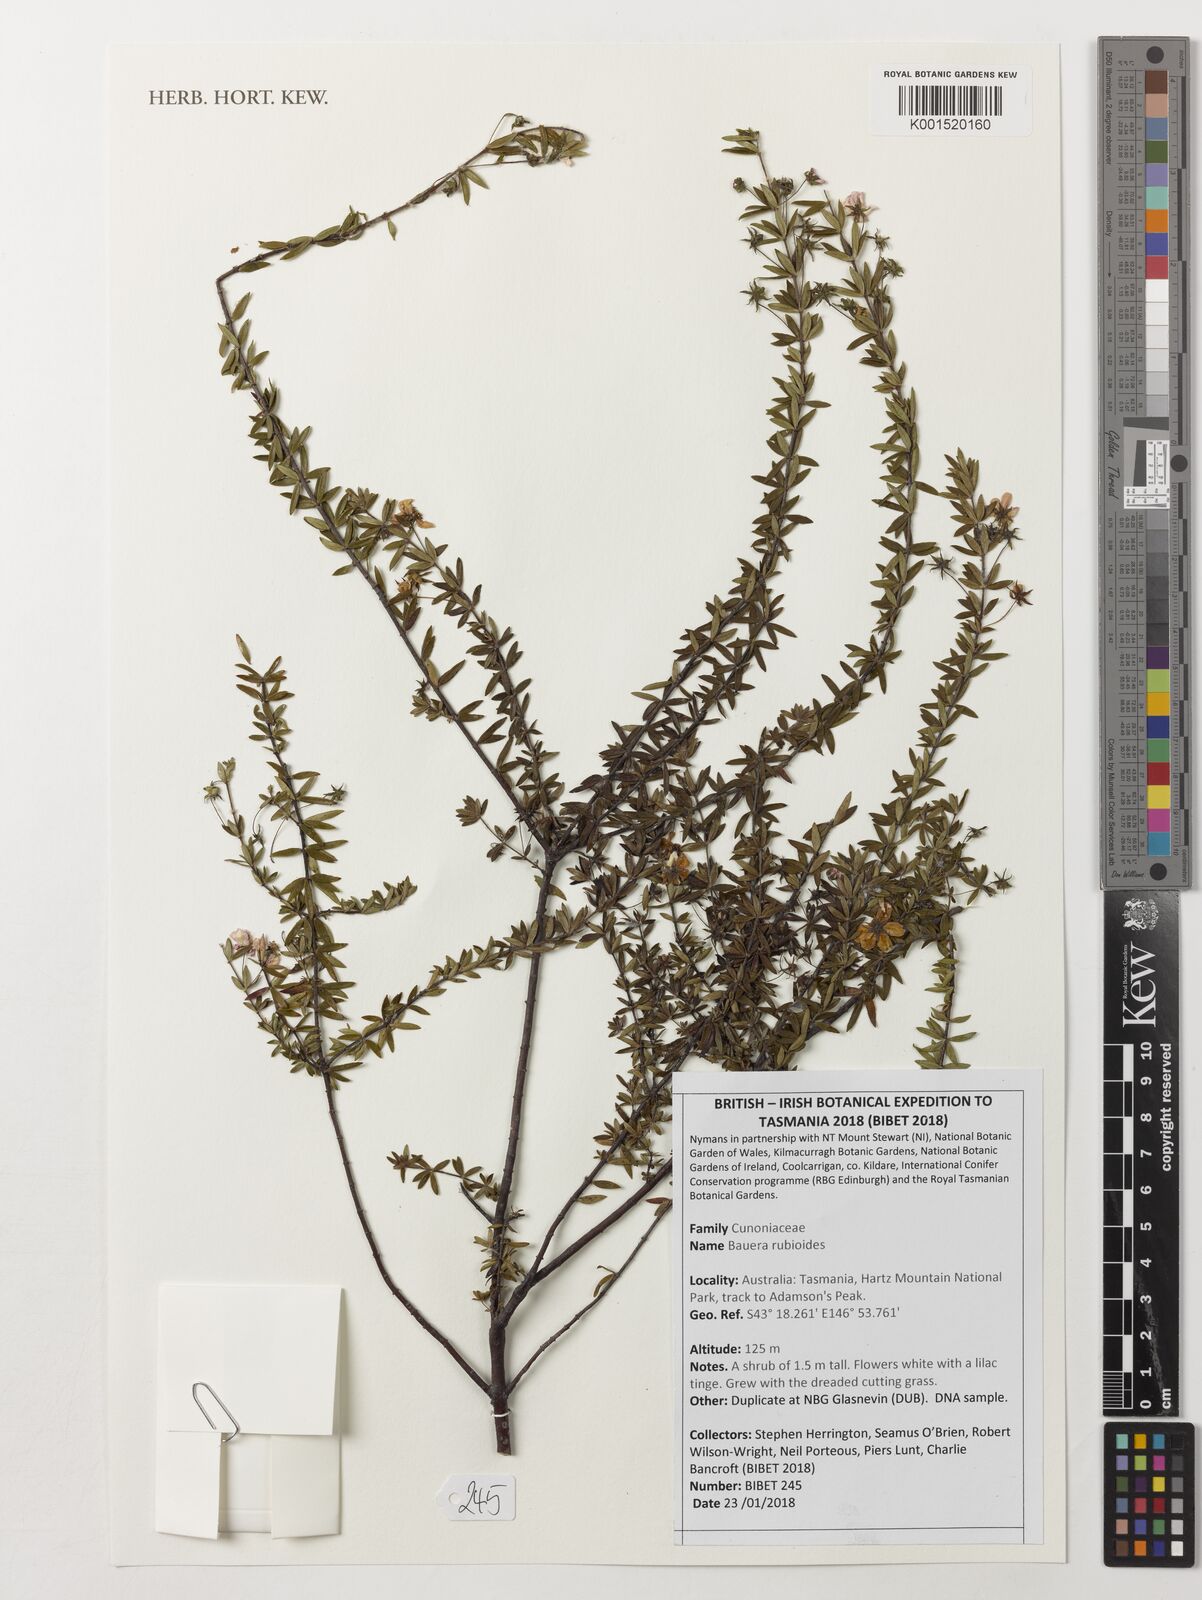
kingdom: Plantae
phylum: Tracheophyta
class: Magnoliopsida
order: Oxalidales
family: Cunoniaceae
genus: Bauera
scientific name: Bauera rubioides
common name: River-rose
